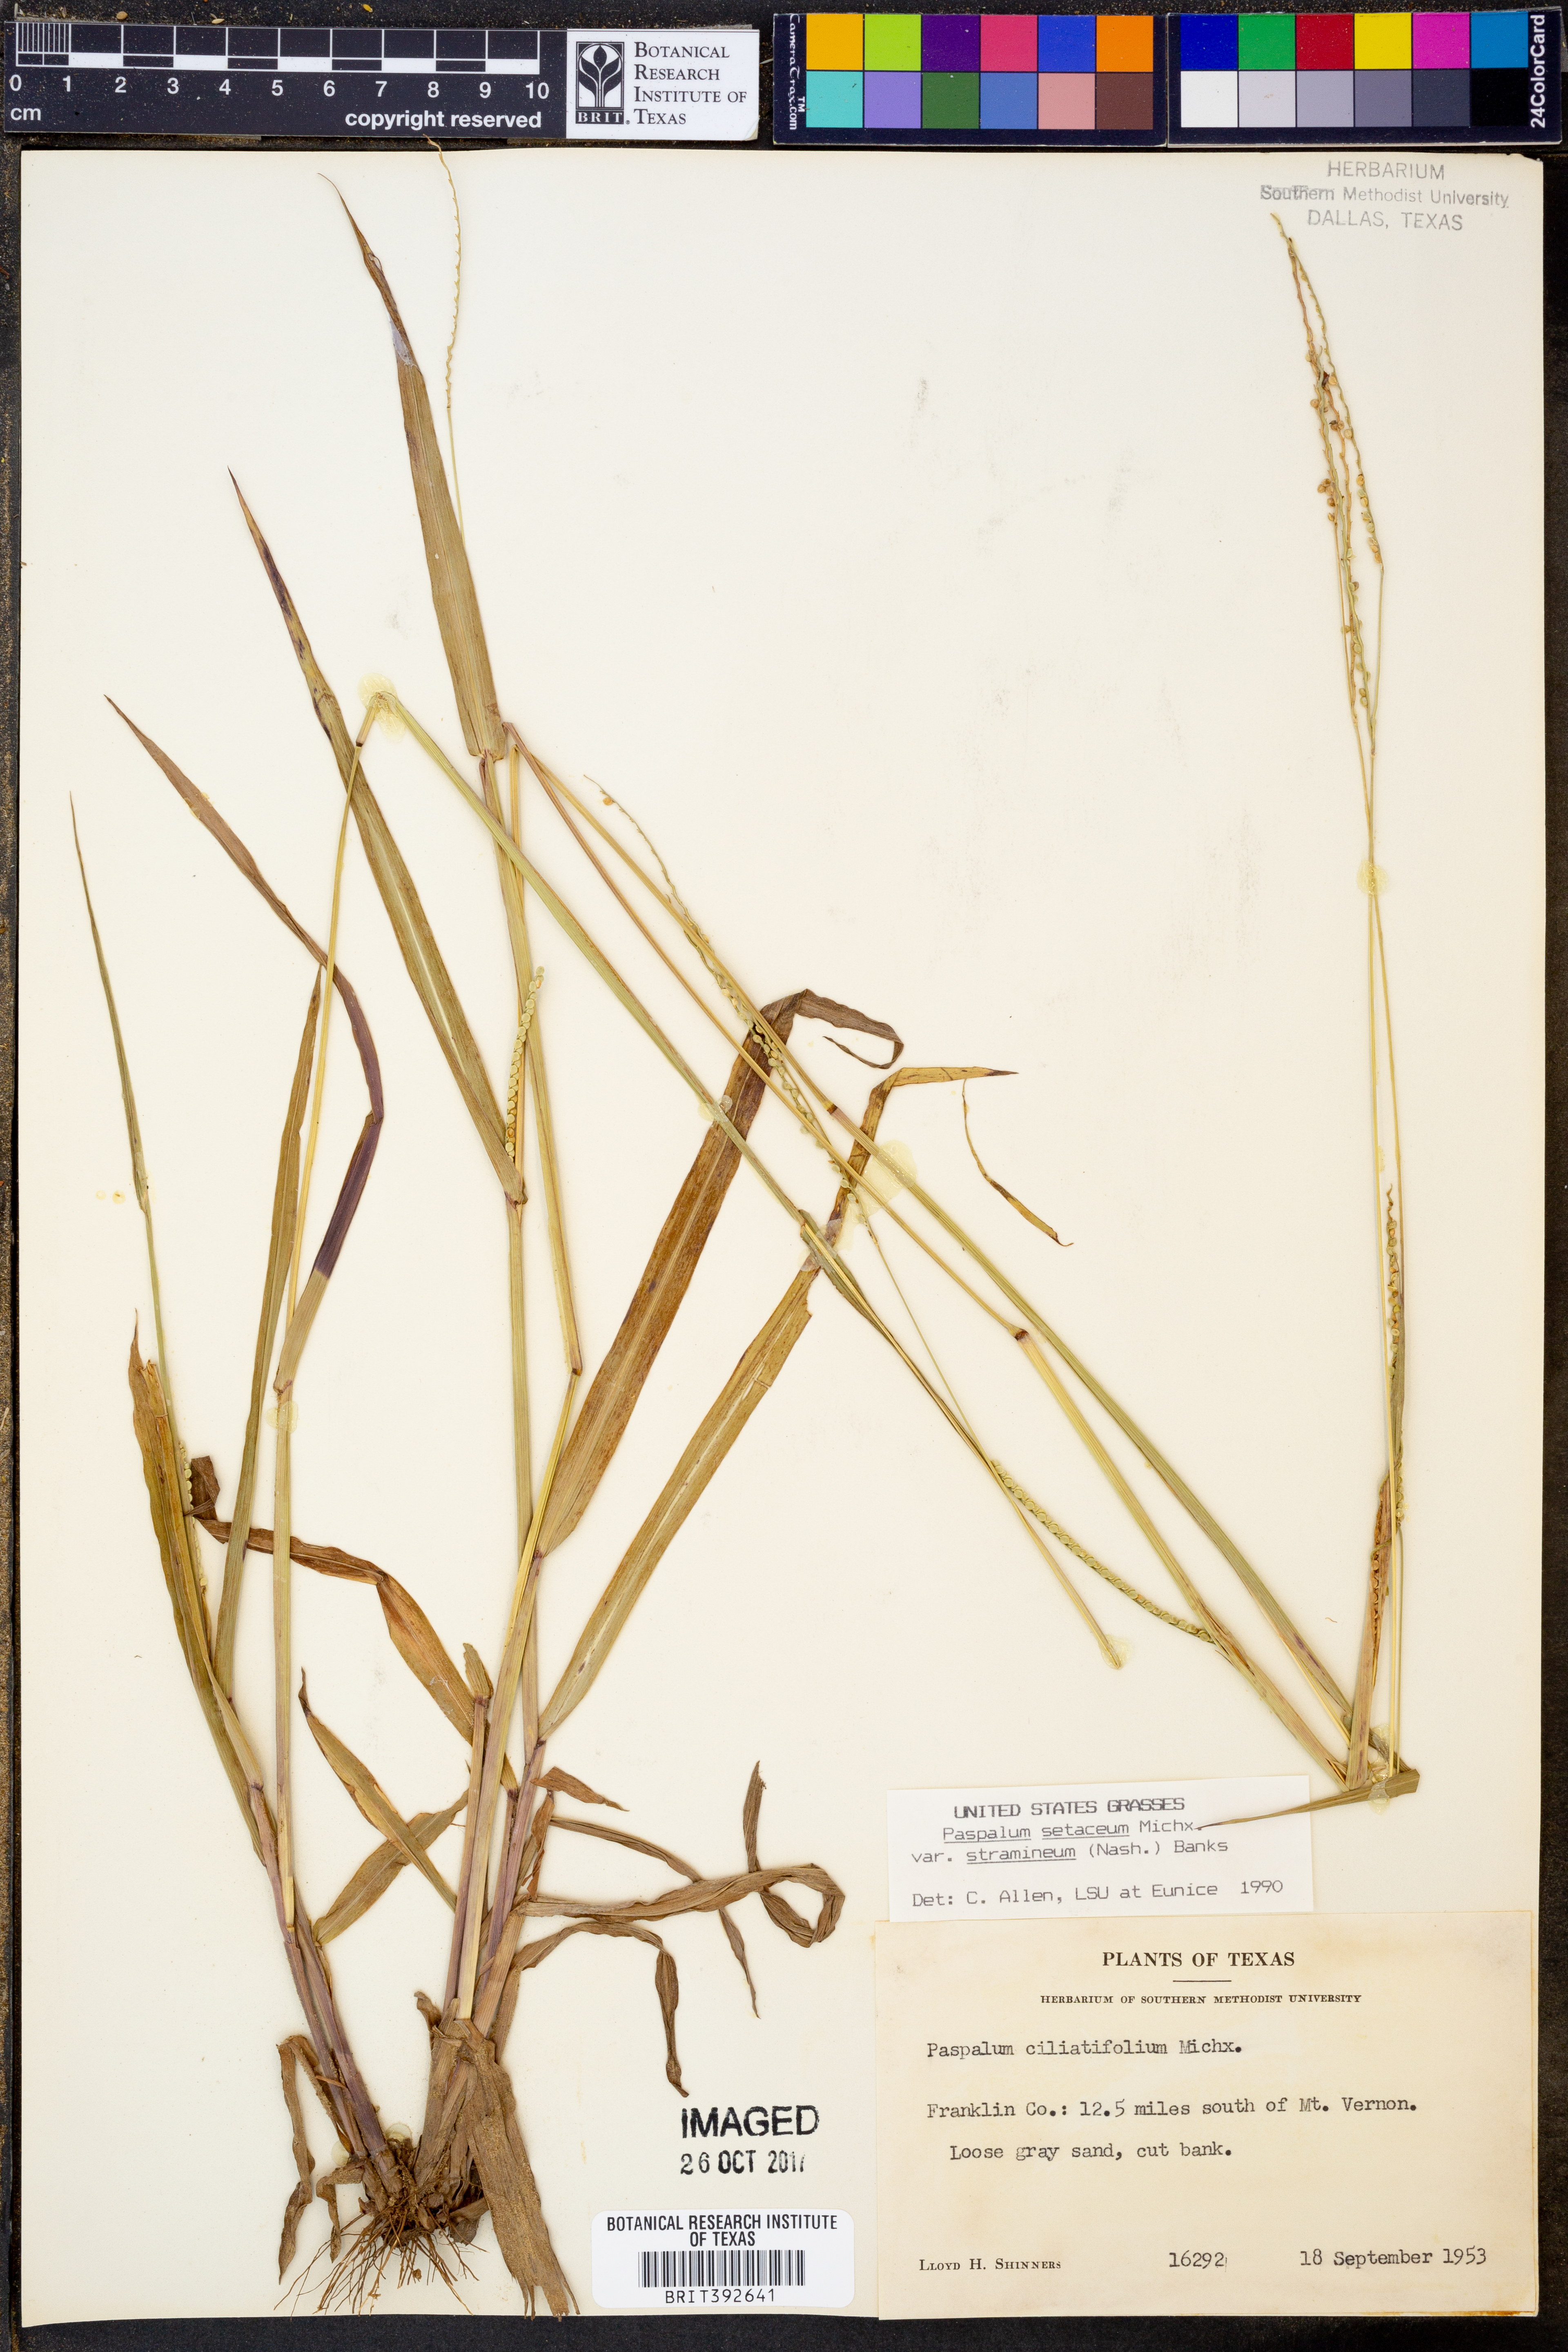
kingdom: Plantae
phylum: Tracheophyta
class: Liliopsida
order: Poales
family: Poaceae
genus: Paspalum
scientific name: Paspalum setaceum
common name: Slender paspalum
